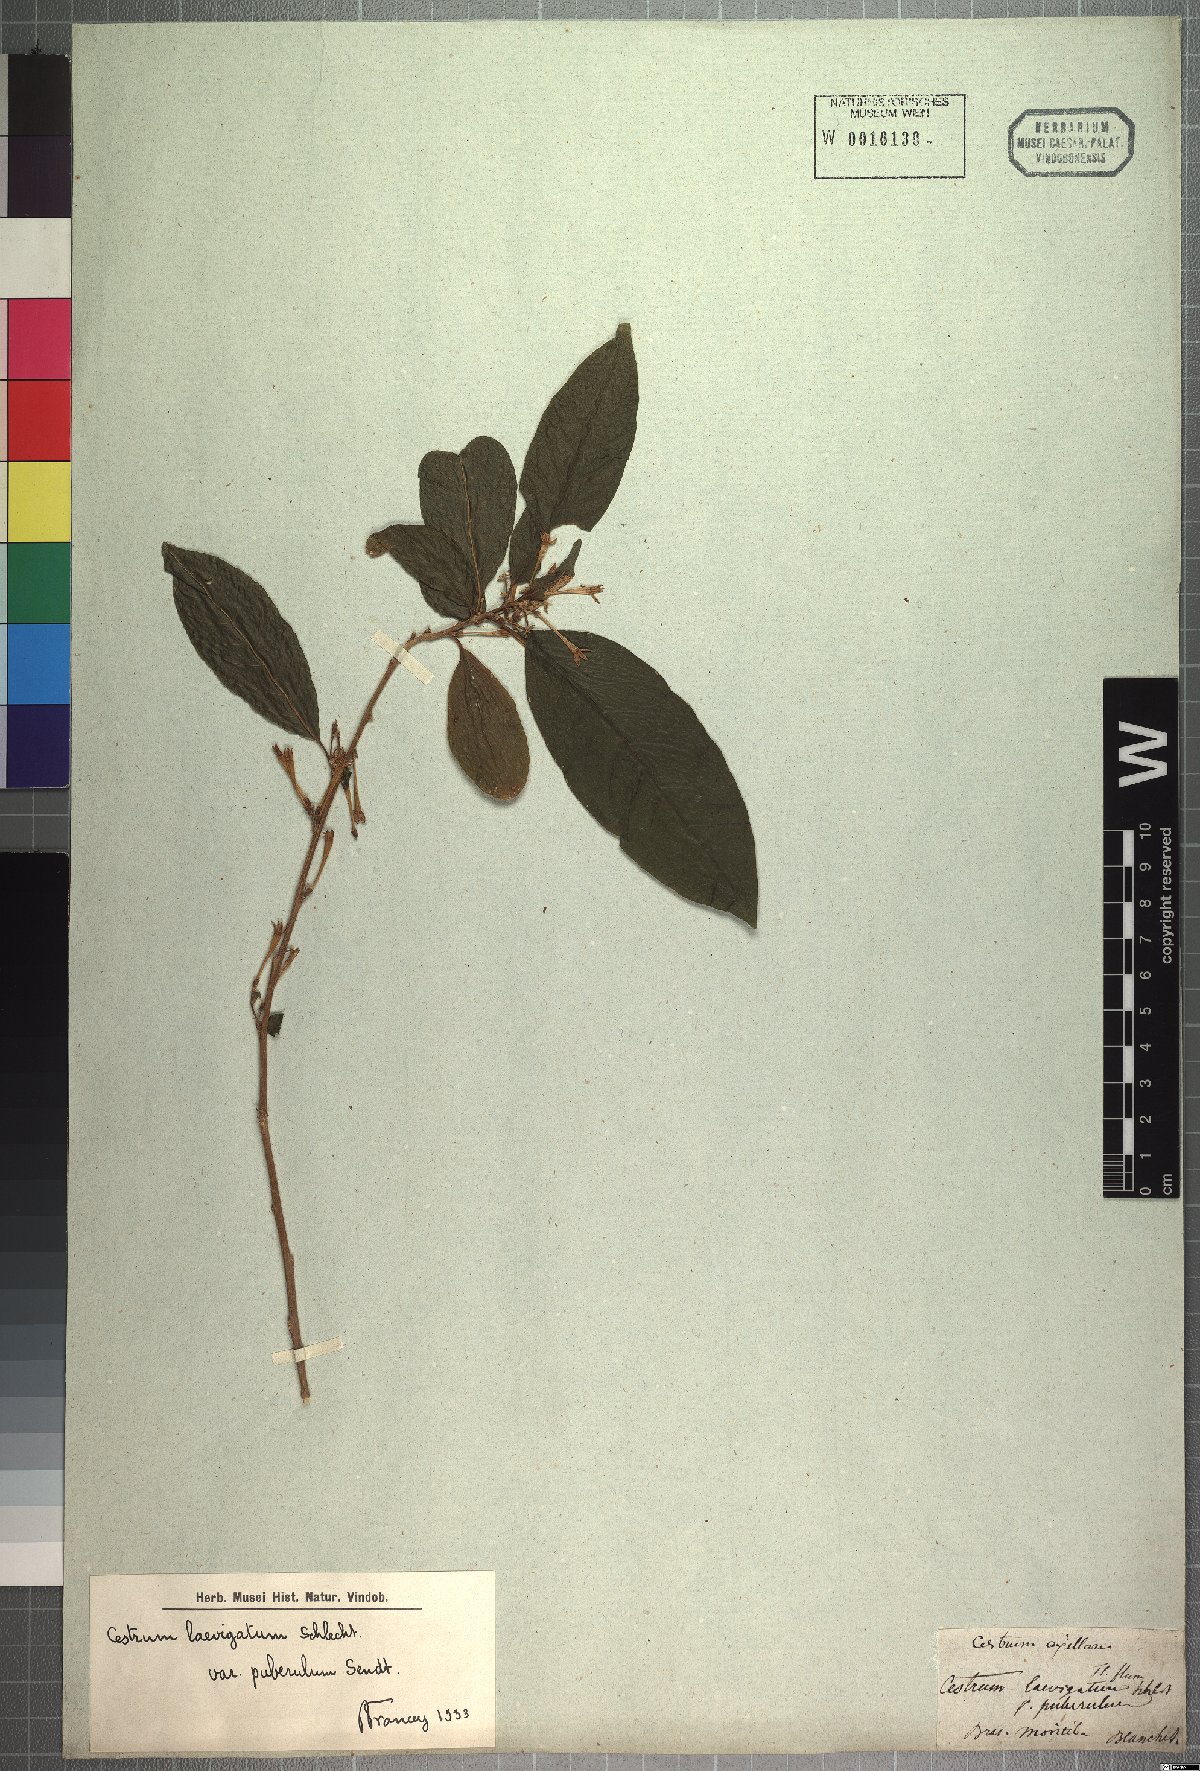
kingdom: Plantae
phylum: Tracheophyta
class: Magnoliopsida
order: Solanales
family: Solanaceae
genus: Cestrum
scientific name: Cestrum laevigatum
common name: Inkberry
